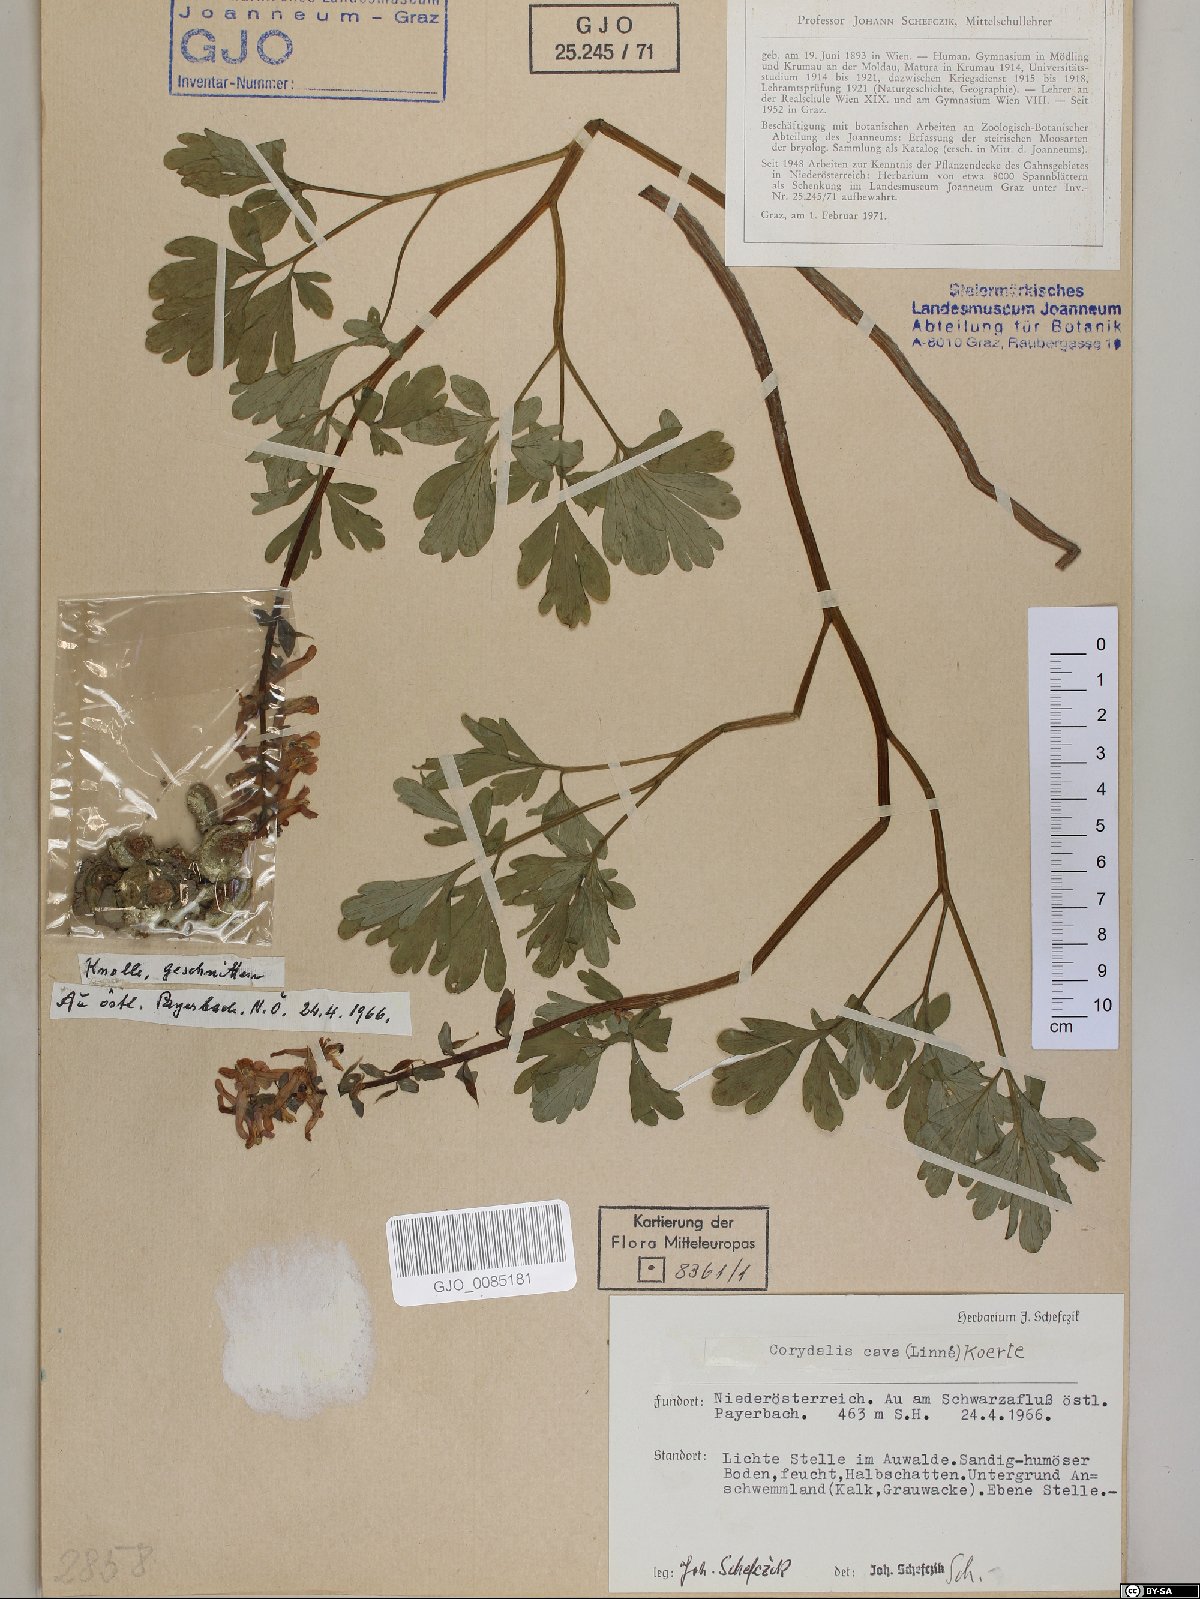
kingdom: Plantae
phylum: Tracheophyta
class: Magnoliopsida
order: Ranunculales
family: Papaveraceae
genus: Corydalis
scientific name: Corydalis cava
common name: Hollowroot
